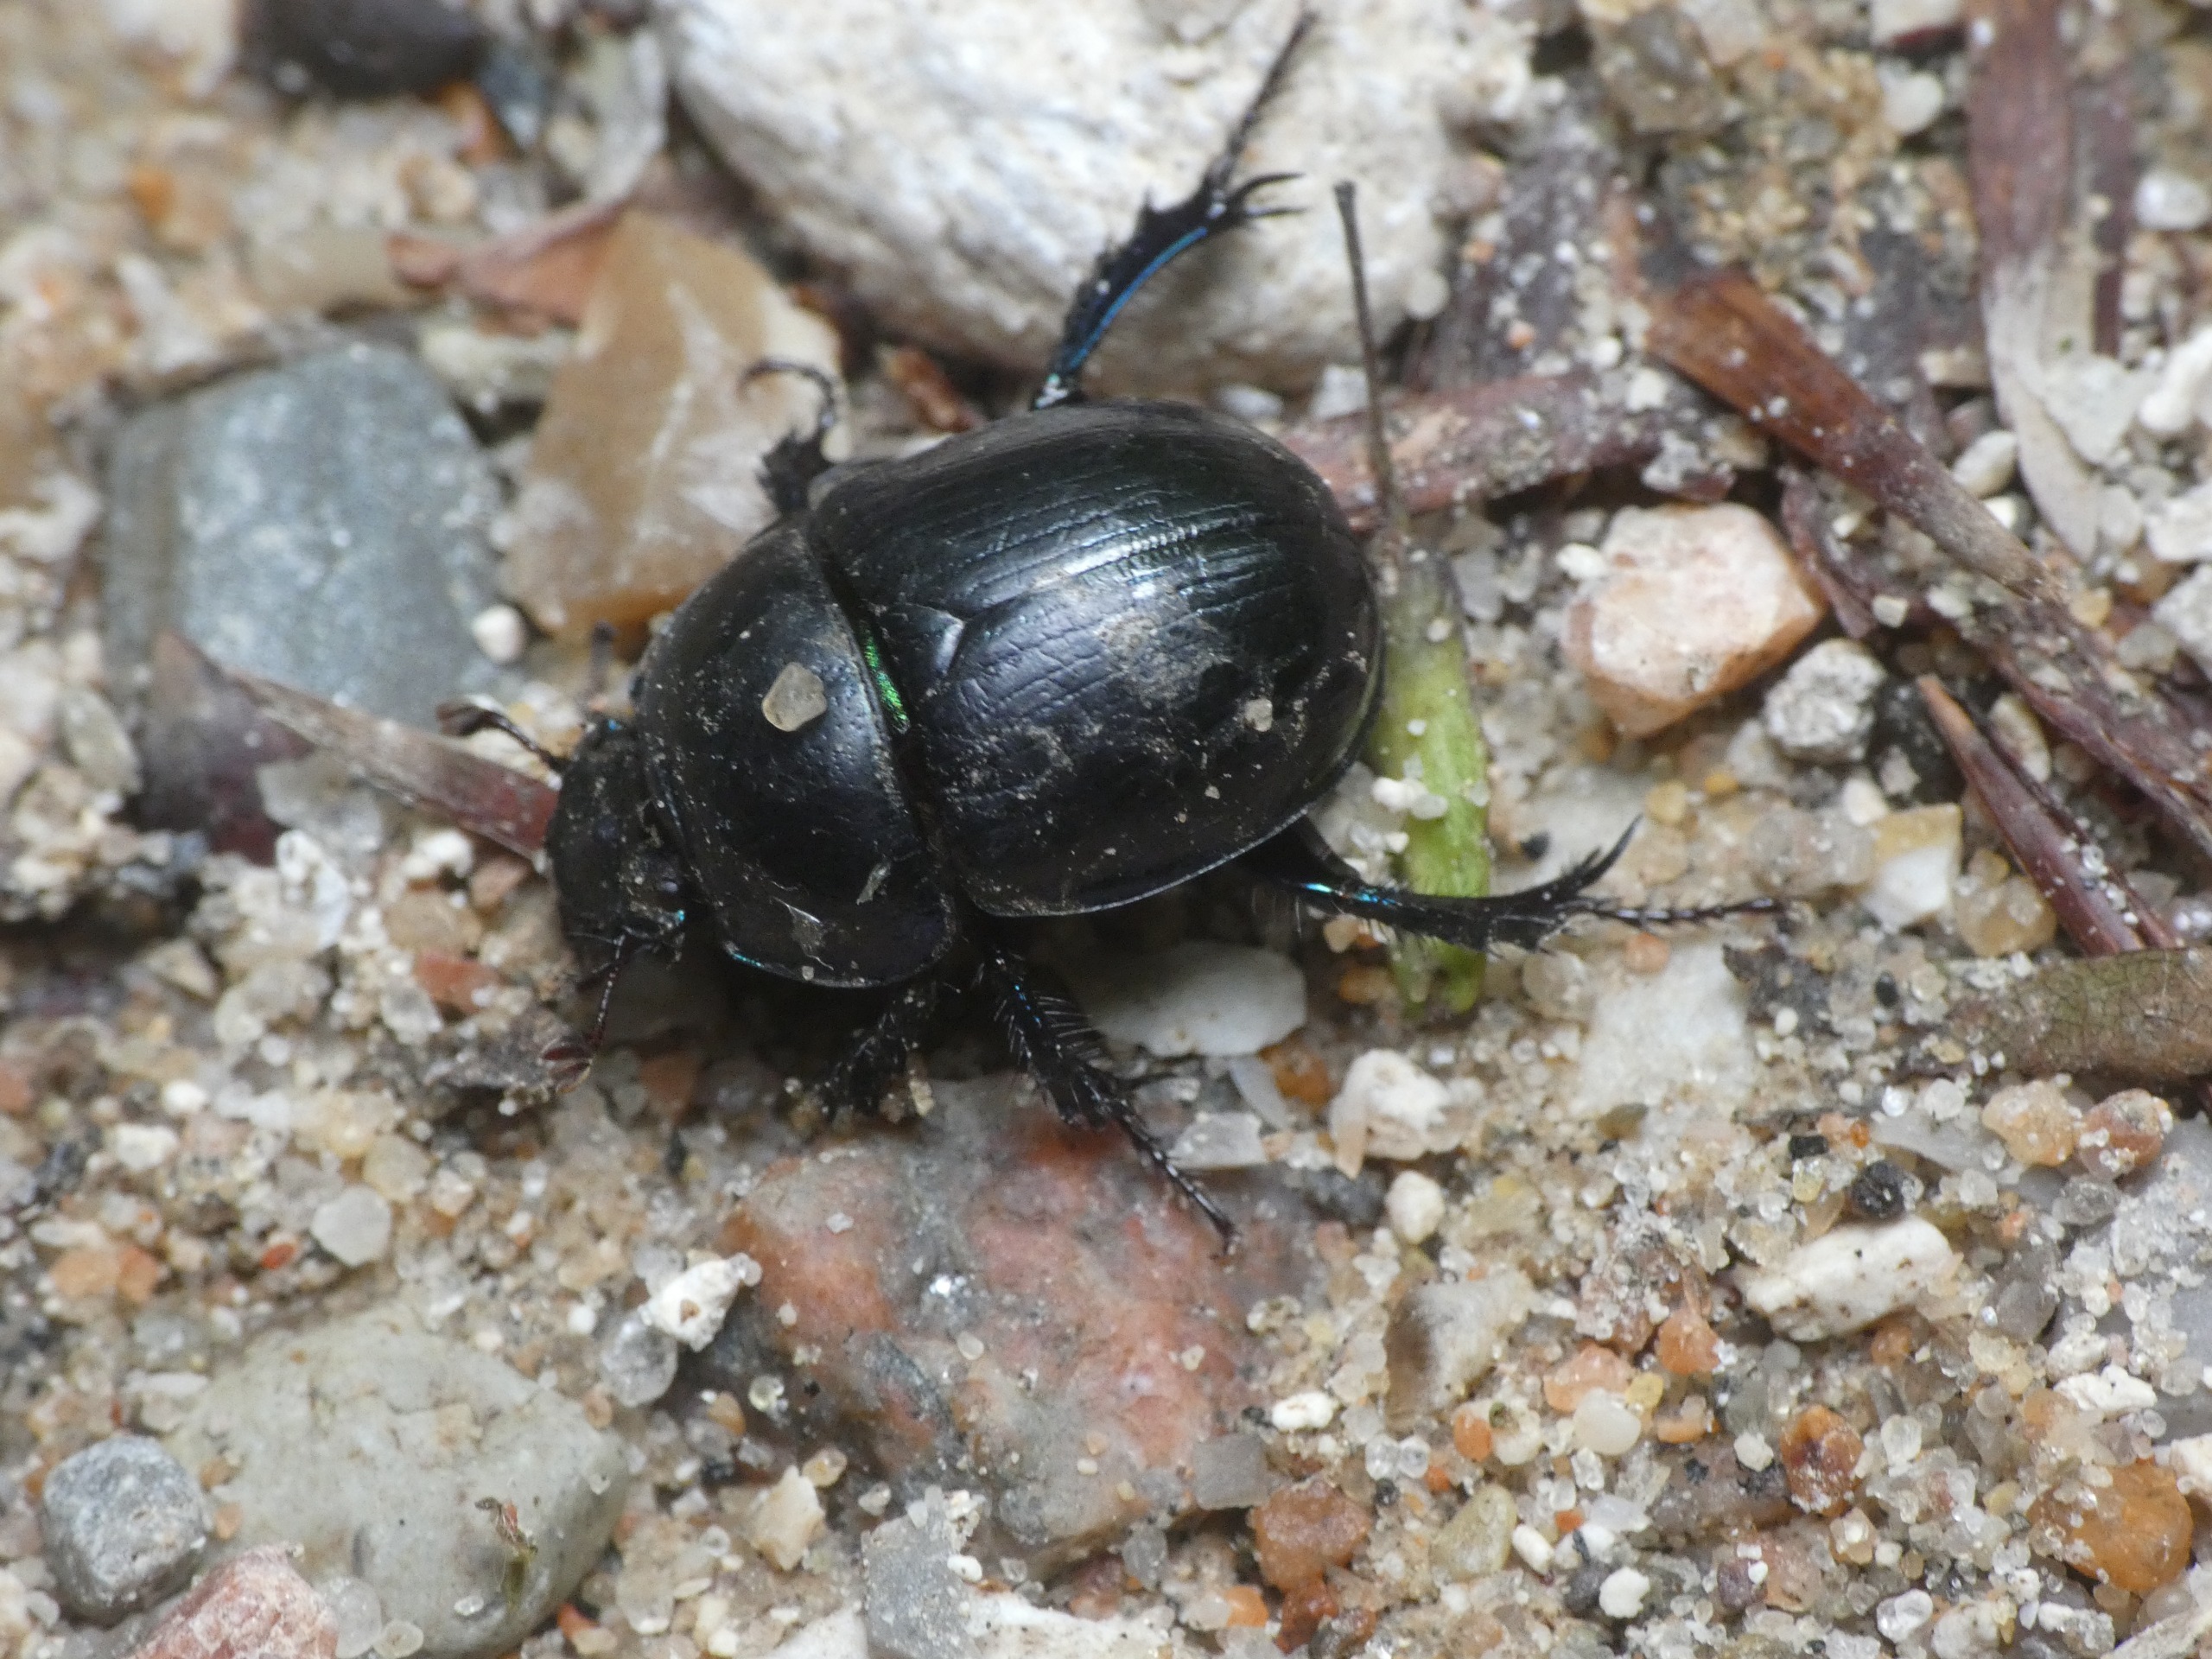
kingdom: Animalia
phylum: Arthropoda
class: Insecta
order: Coleoptera
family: Geotrupidae
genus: Anoplotrupes
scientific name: Anoplotrupes stercorosus
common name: Skovskarnbasse
